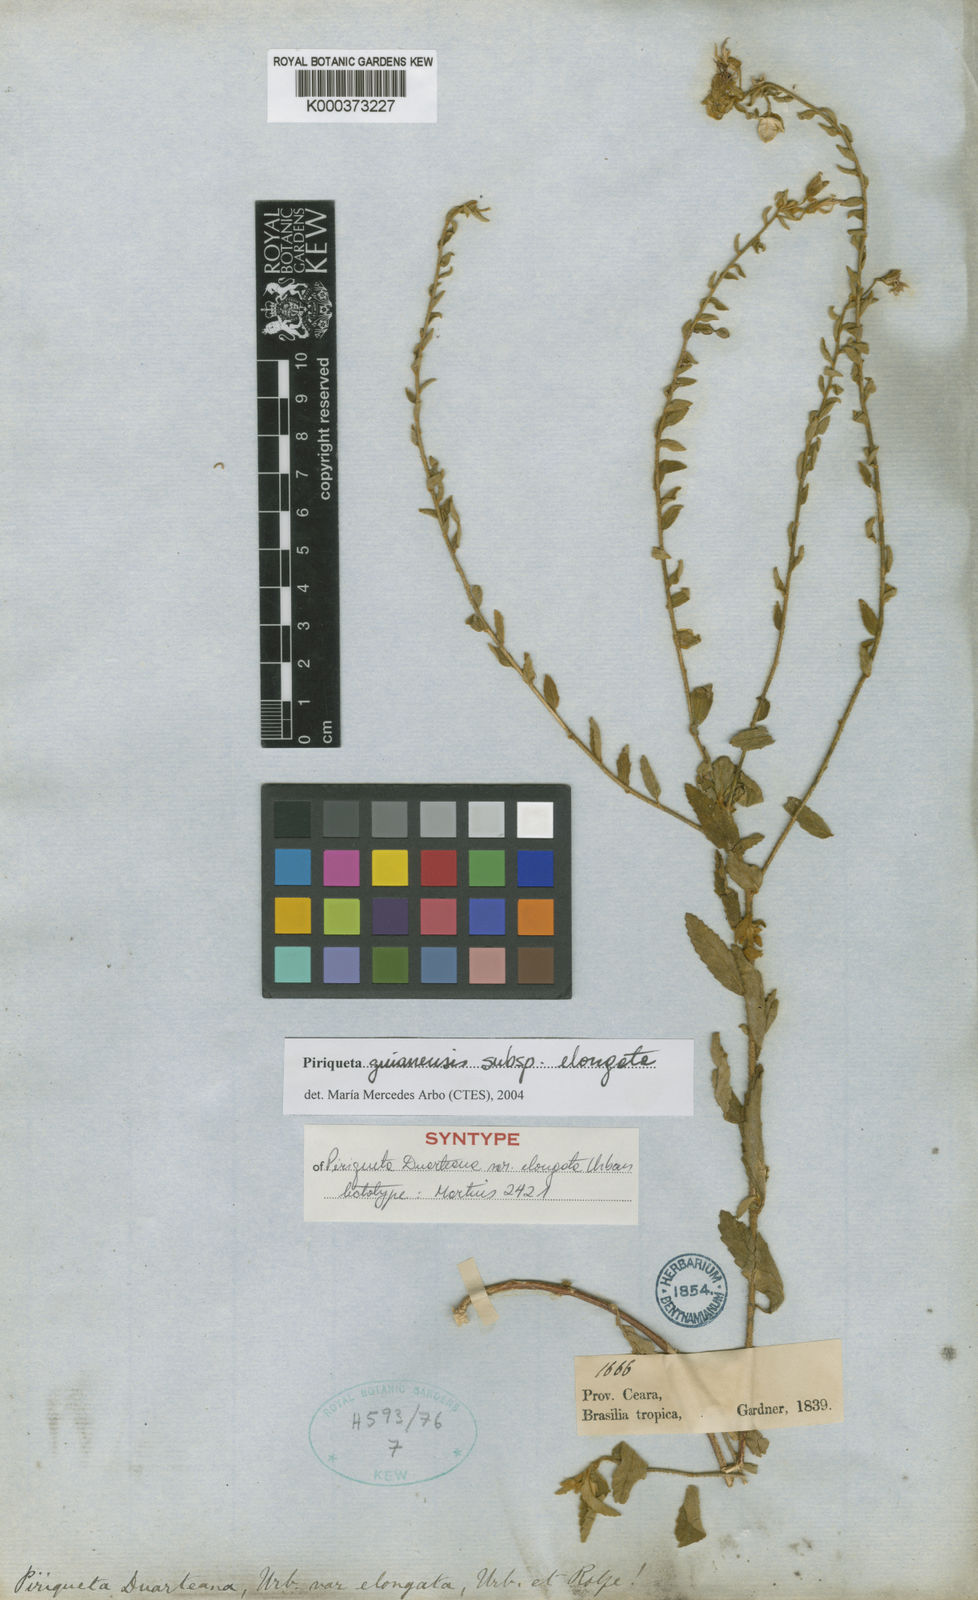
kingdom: Plantae
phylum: Tracheophyta
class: Magnoliopsida
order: Malpighiales
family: Turneraceae
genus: Piriqueta
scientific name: Piriqueta guianensis
